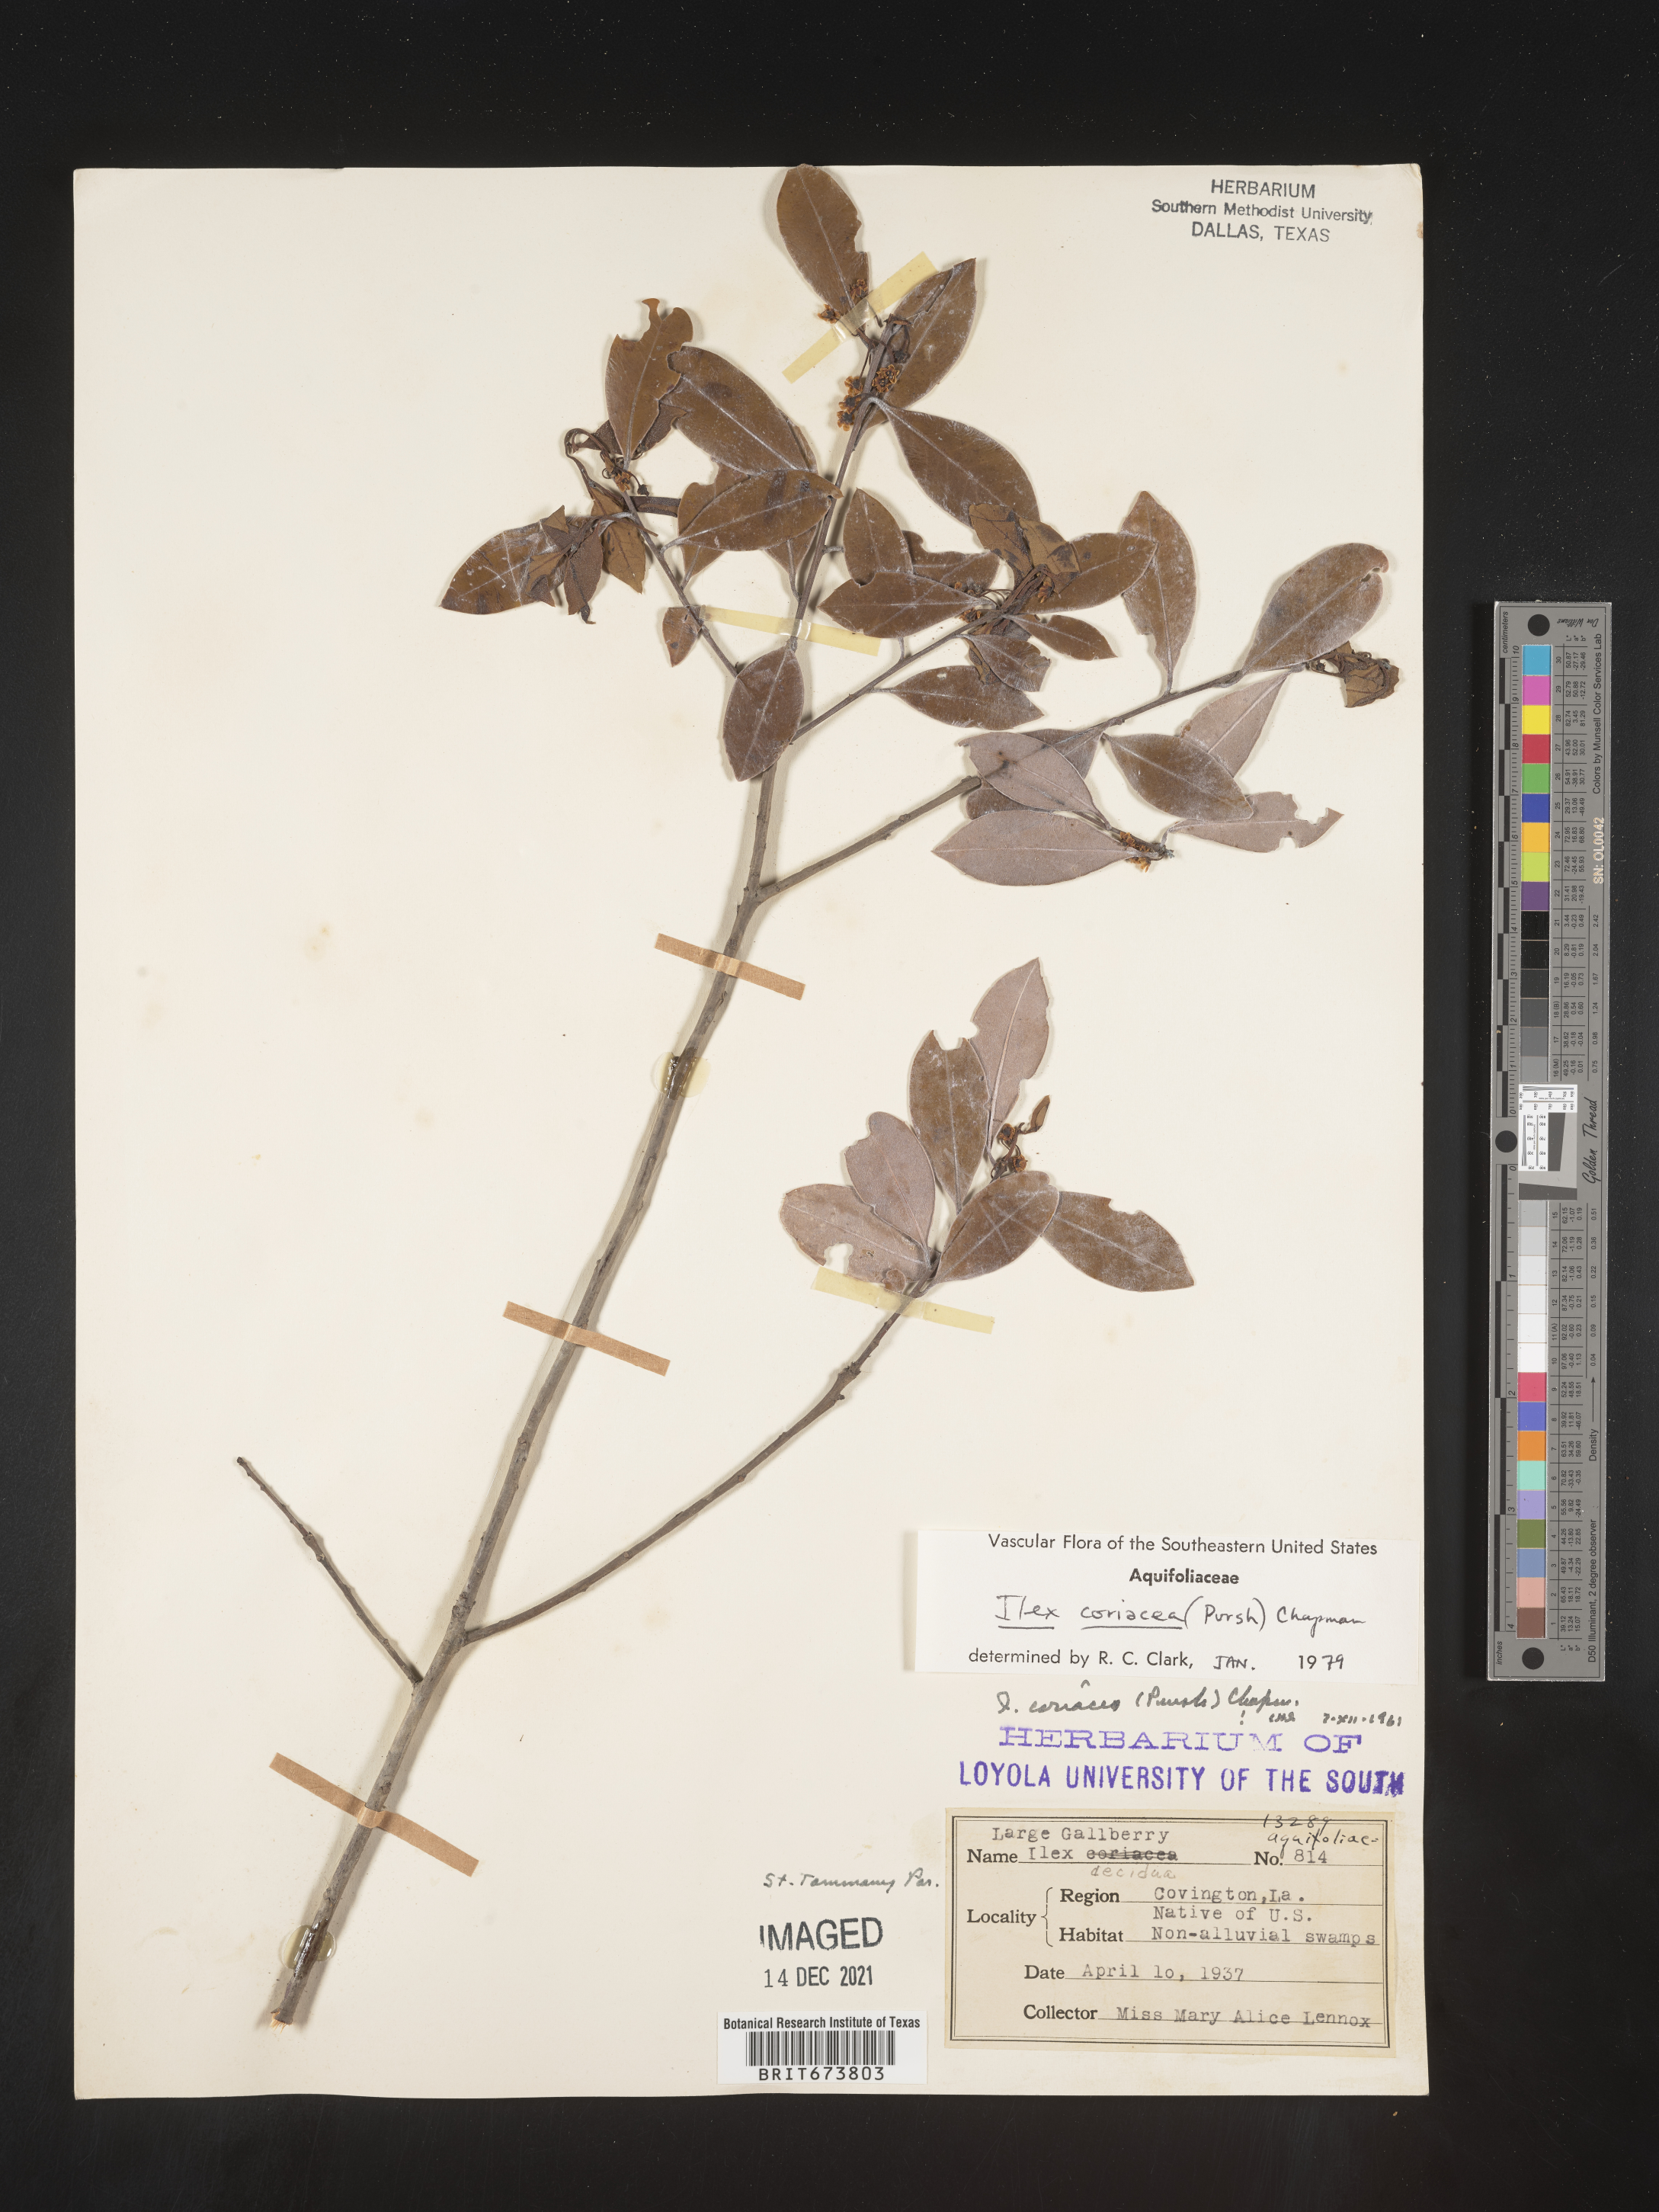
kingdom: Plantae
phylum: Tracheophyta
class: Magnoliopsida
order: Aquifoliales
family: Aquifoliaceae
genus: Ilex
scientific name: Ilex coriacea
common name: Sweet gallberry
